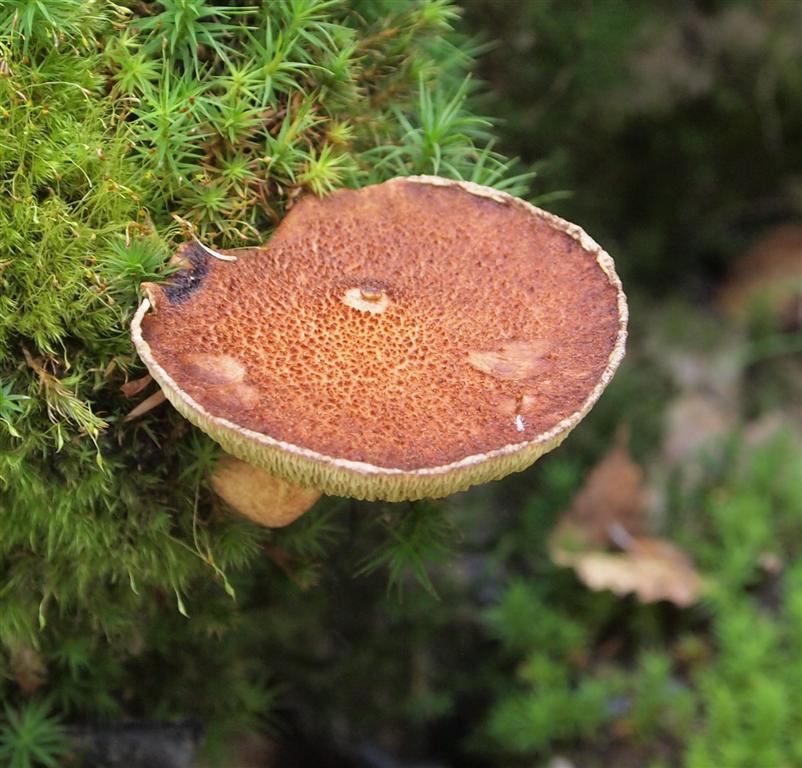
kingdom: Fungi
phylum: Basidiomycota
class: Agaricomycetes
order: Boletales
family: Suillaceae
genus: Suillus
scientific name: Suillus cavipes
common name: hulstokket slimrørhat
